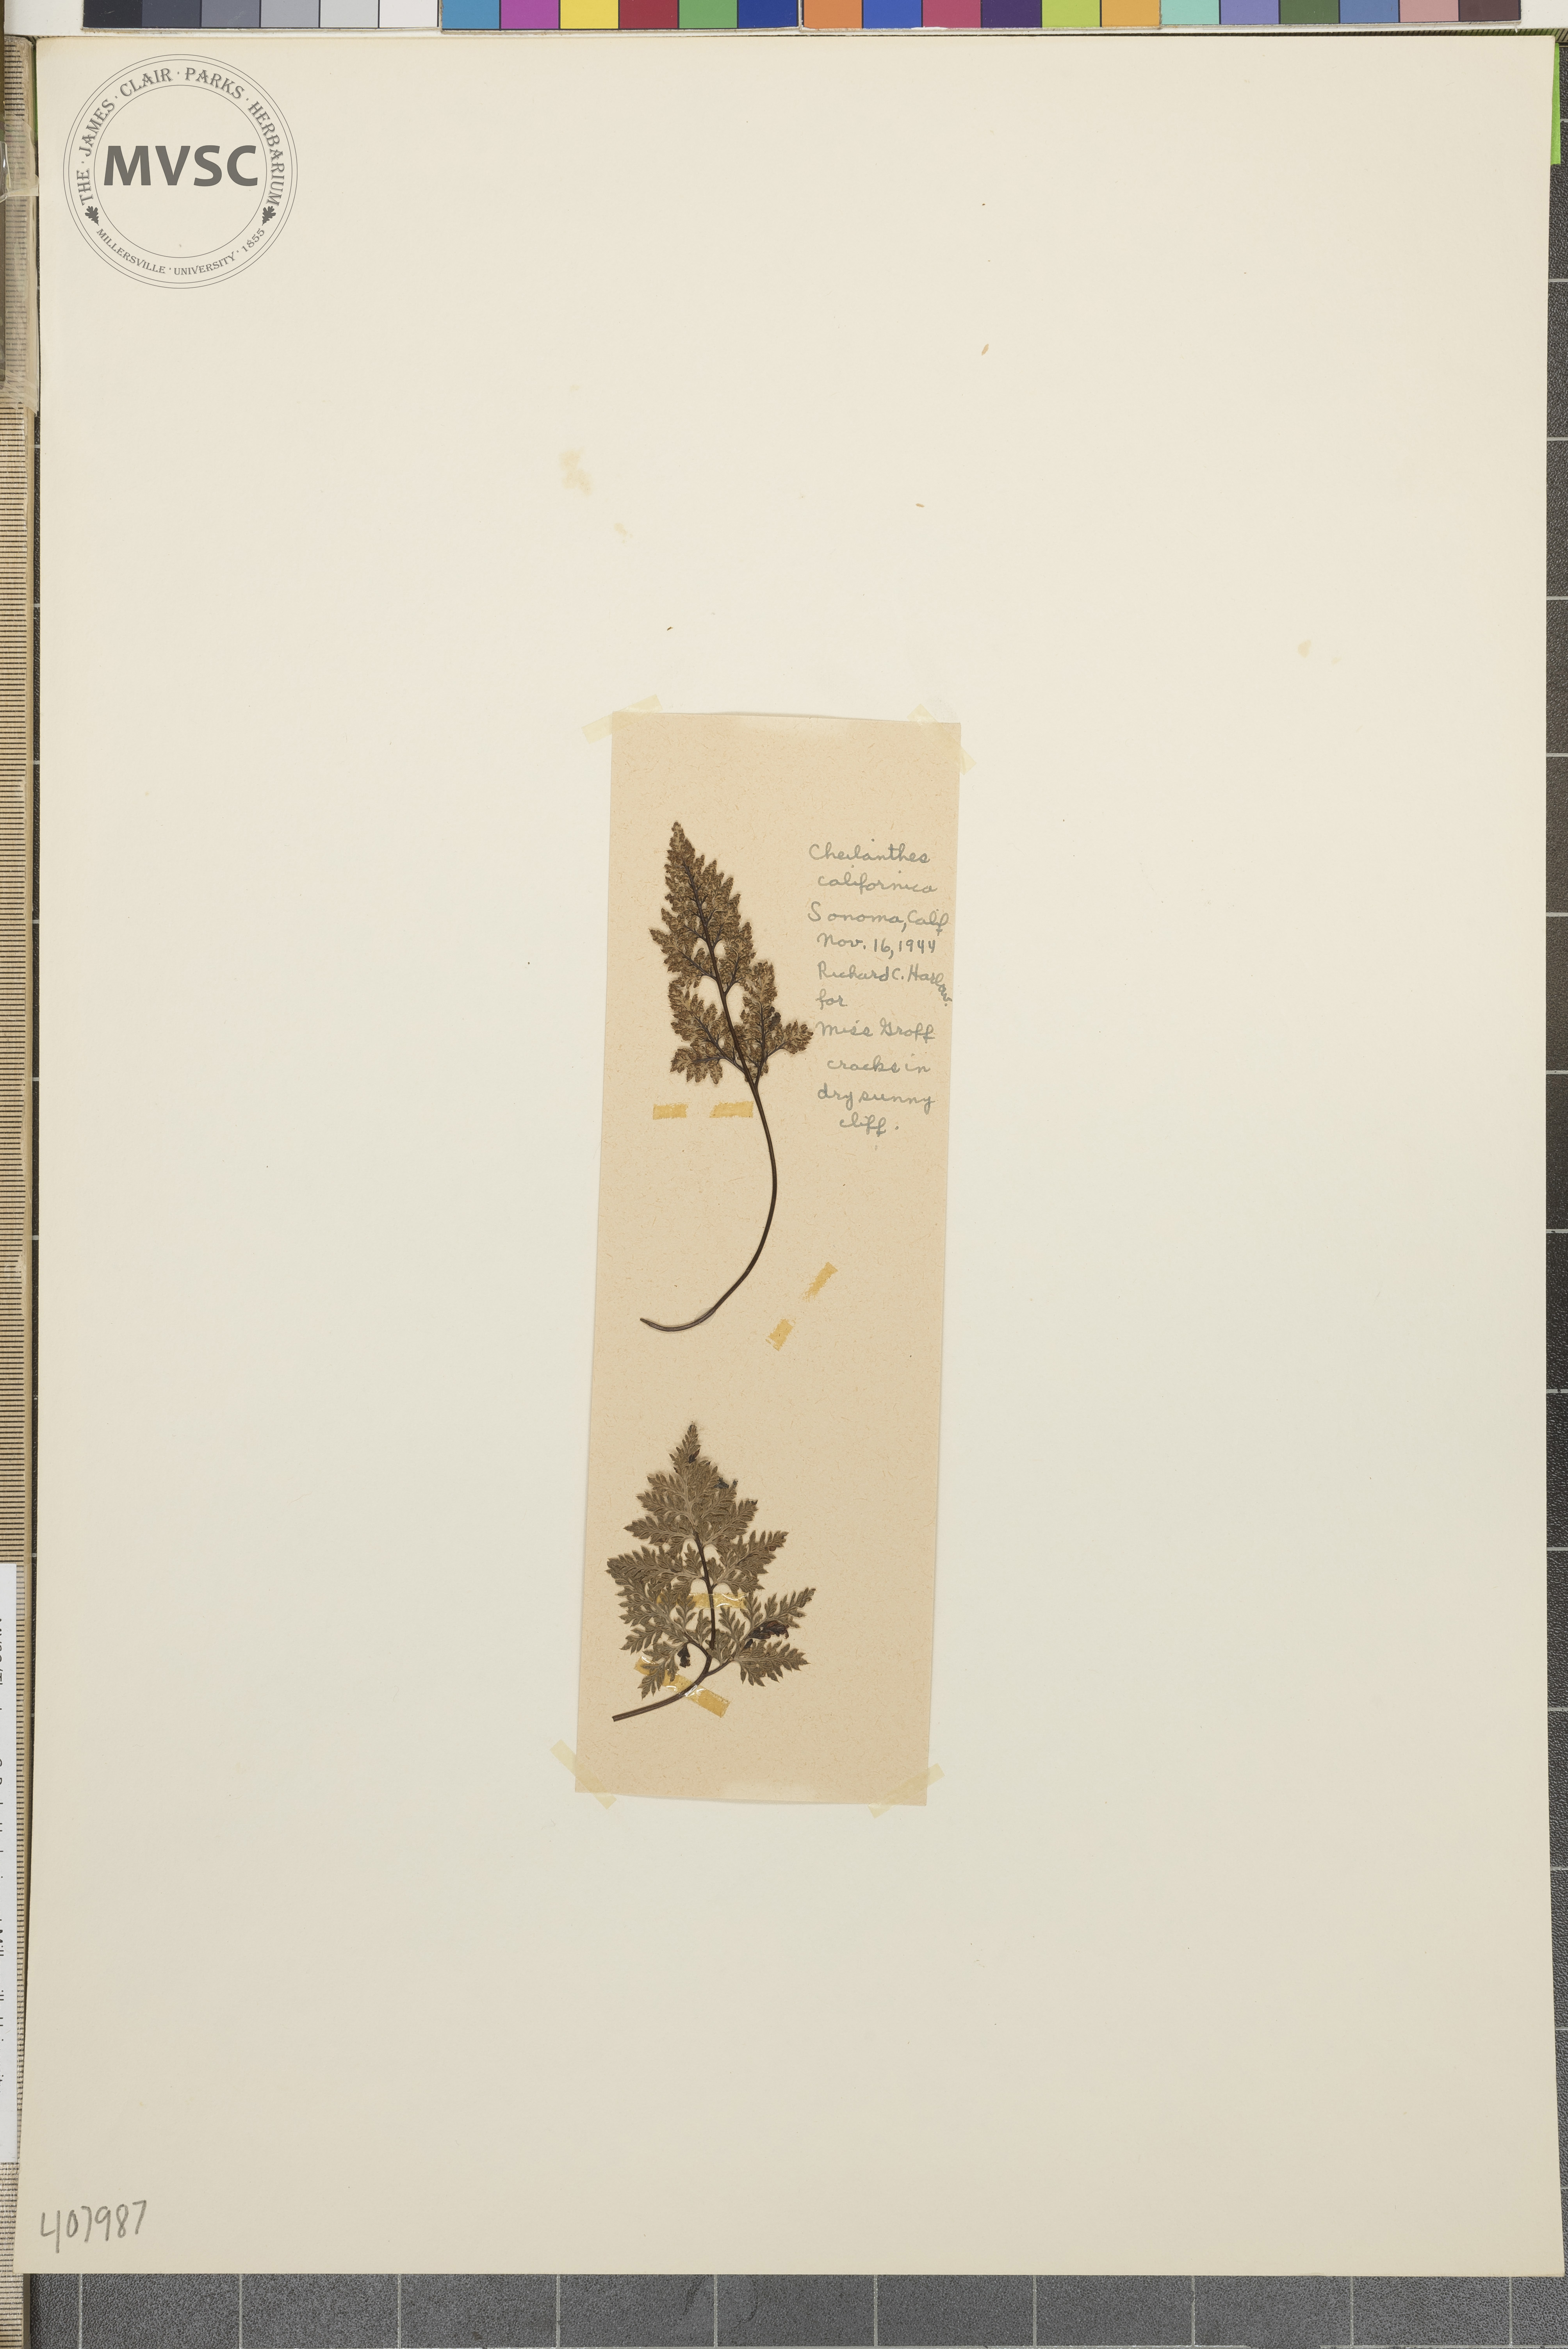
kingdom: Plantae
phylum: Tracheophyta
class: Polypodiopsida
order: Polypodiales
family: Pteridaceae
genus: Cheilanthes
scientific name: Cheilanthes californica
